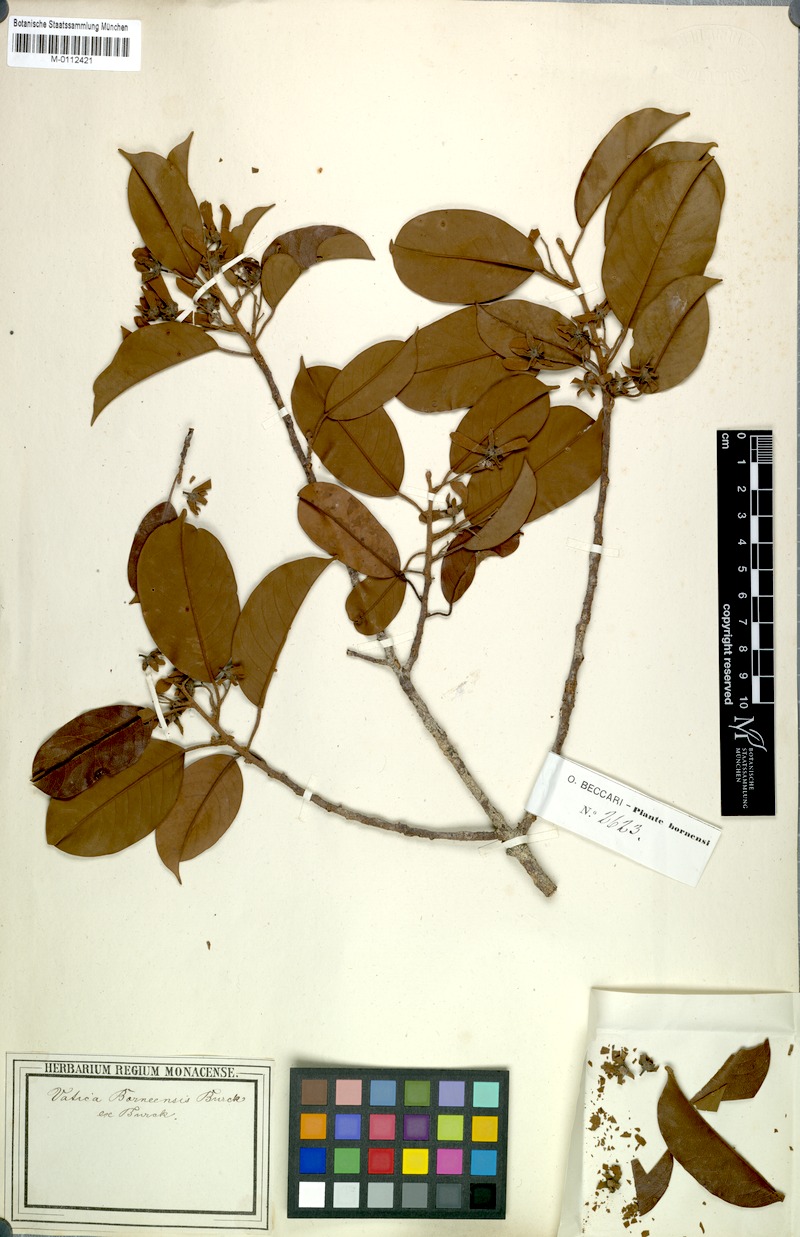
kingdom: Plantae
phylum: Tracheophyta
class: Magnoliopsida
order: Malvales
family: Dipterocarpaceae
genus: Vatica
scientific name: Vatica borneensis
